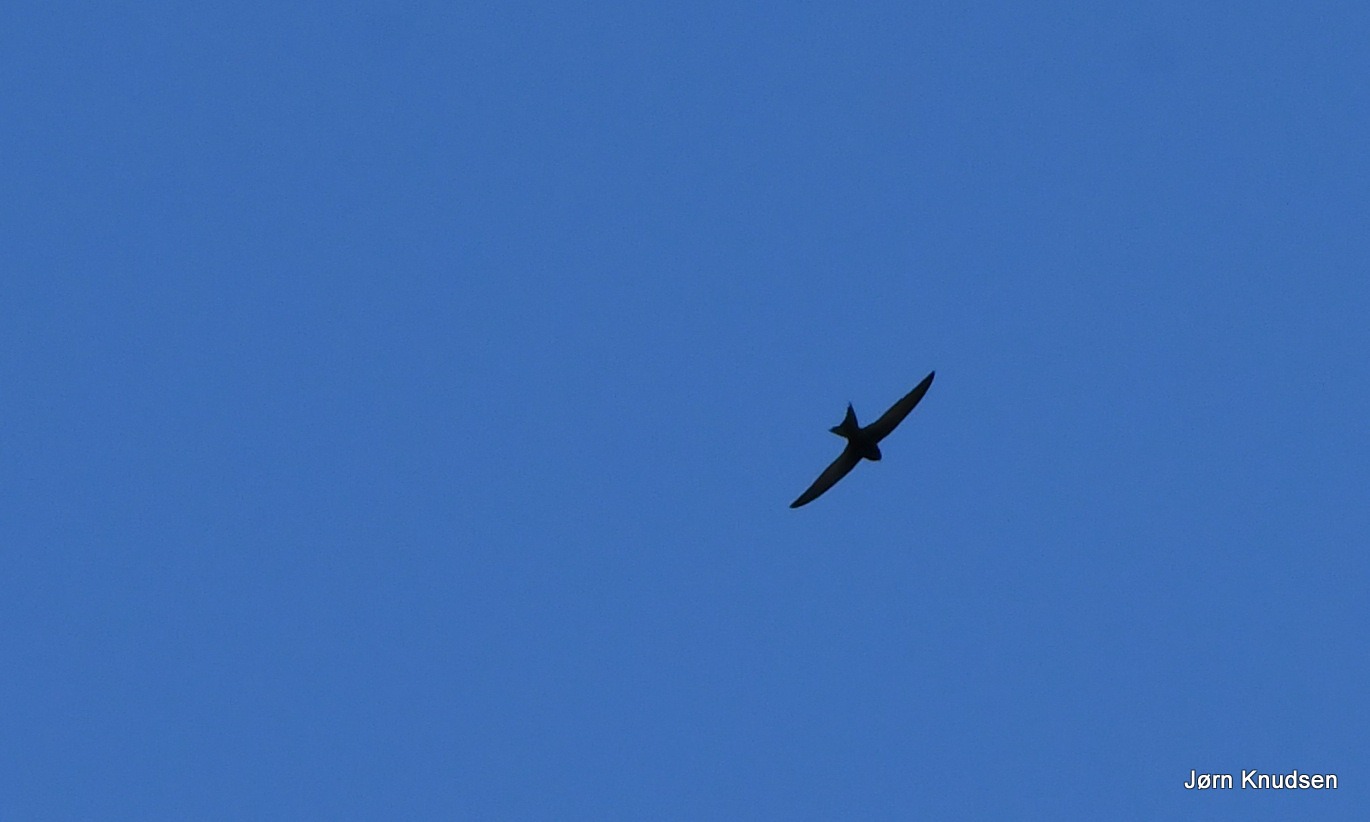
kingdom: Animalia
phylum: Chordata
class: Aves
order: Apodiformes
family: Apodidae
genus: Apus
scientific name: Apus apus
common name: Mursejler
